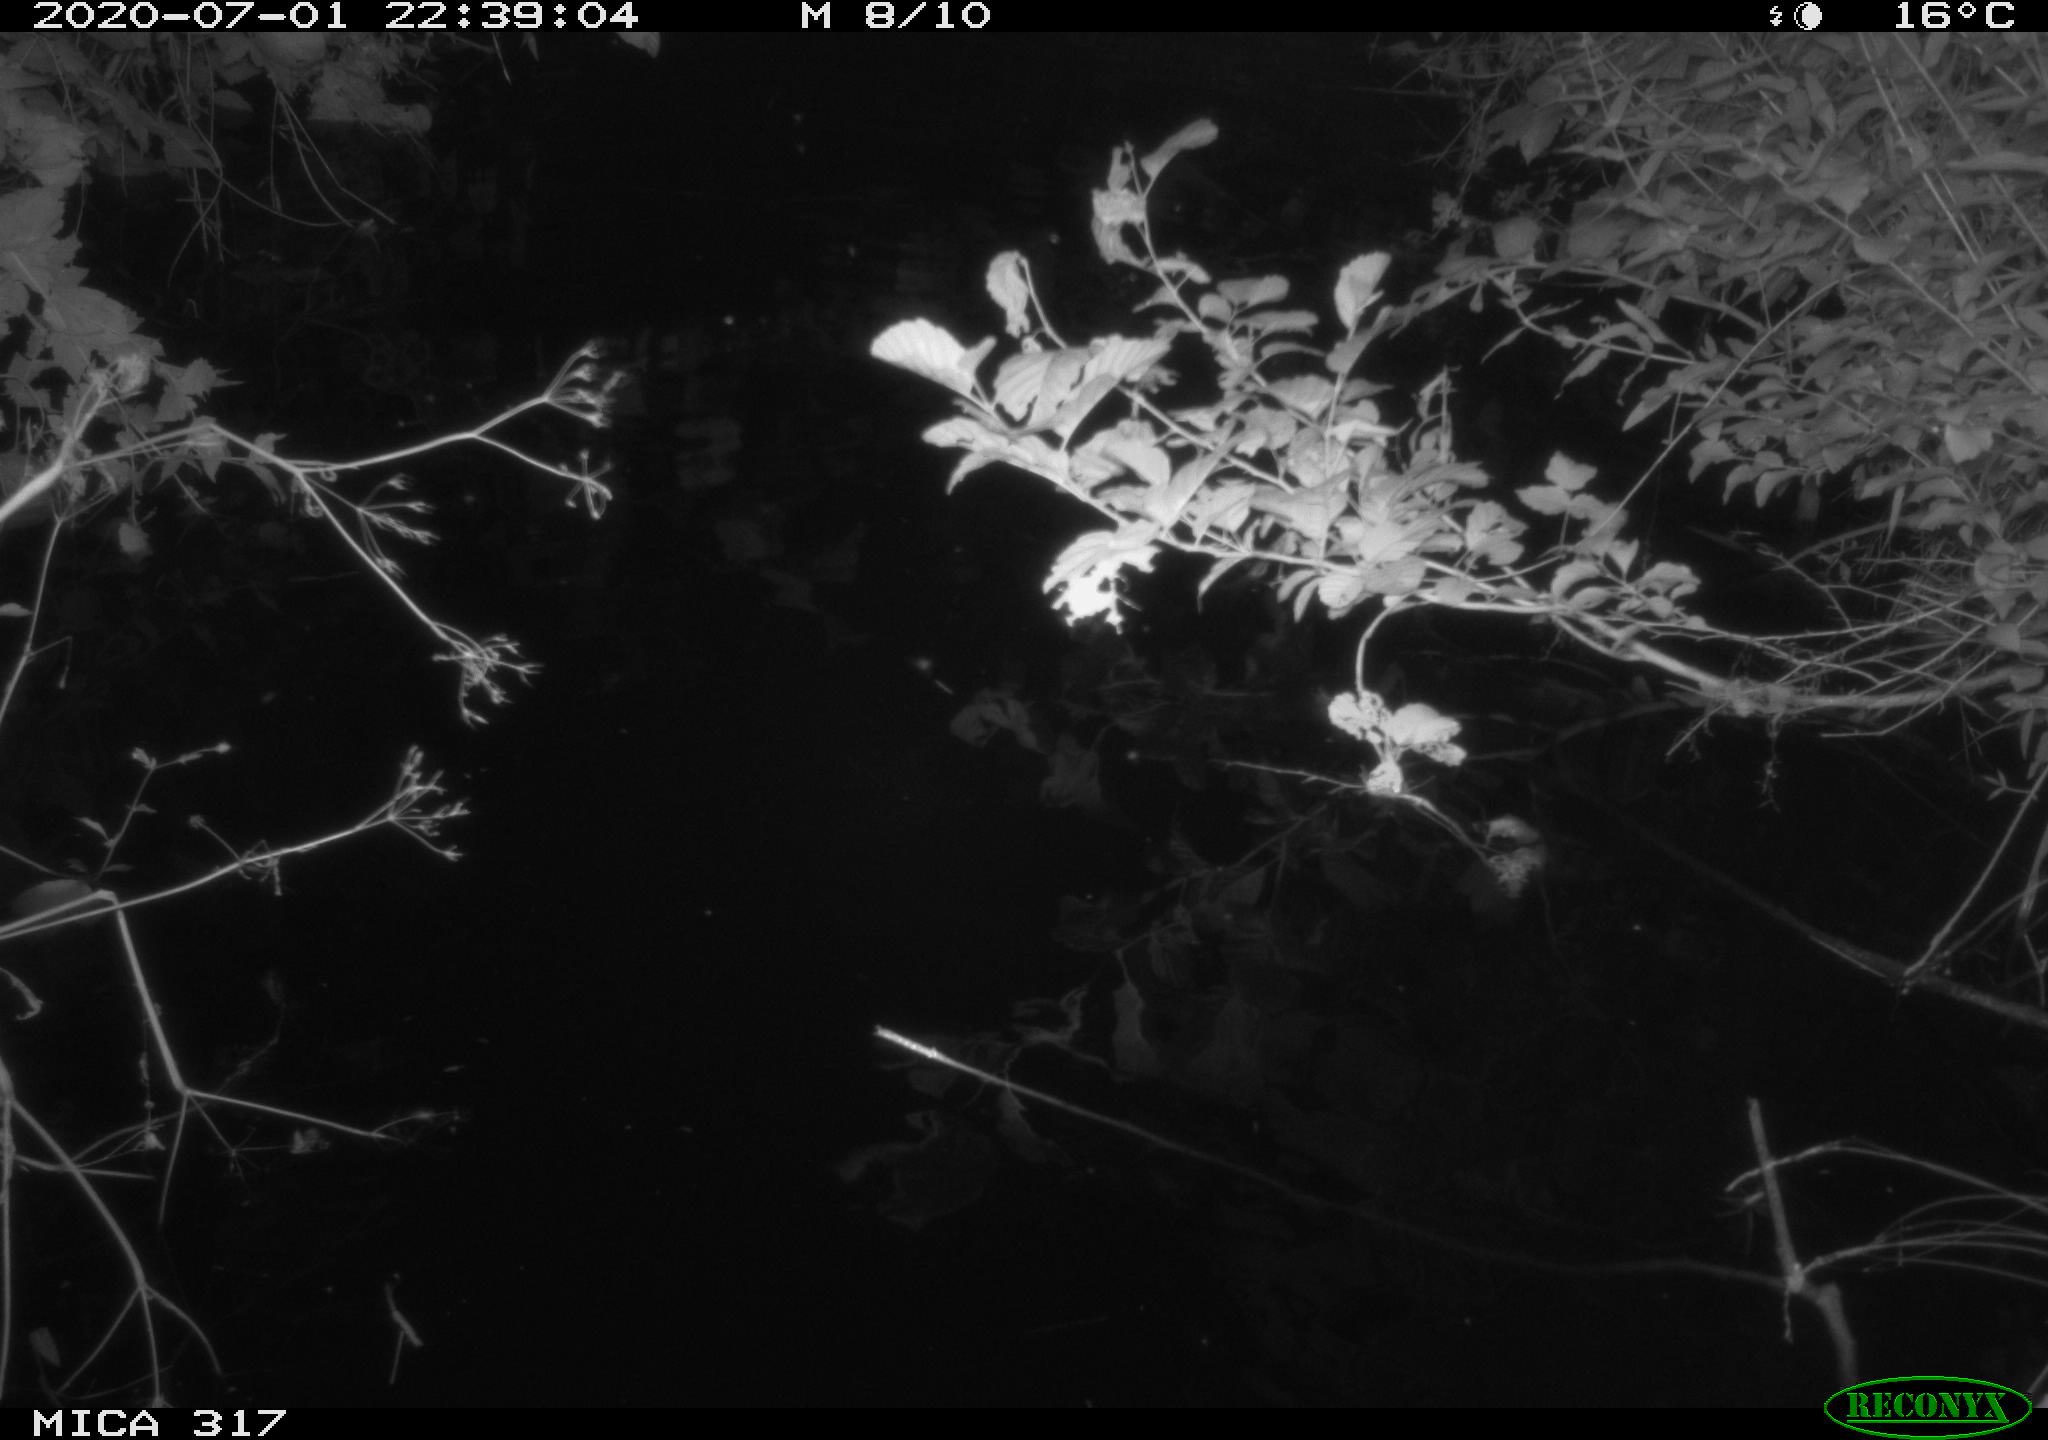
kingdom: Animalia
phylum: Chordata
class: Aves
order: Anseriformes
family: Anatidae
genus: Anas
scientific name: Anas platyrhynchos
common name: Mallard
